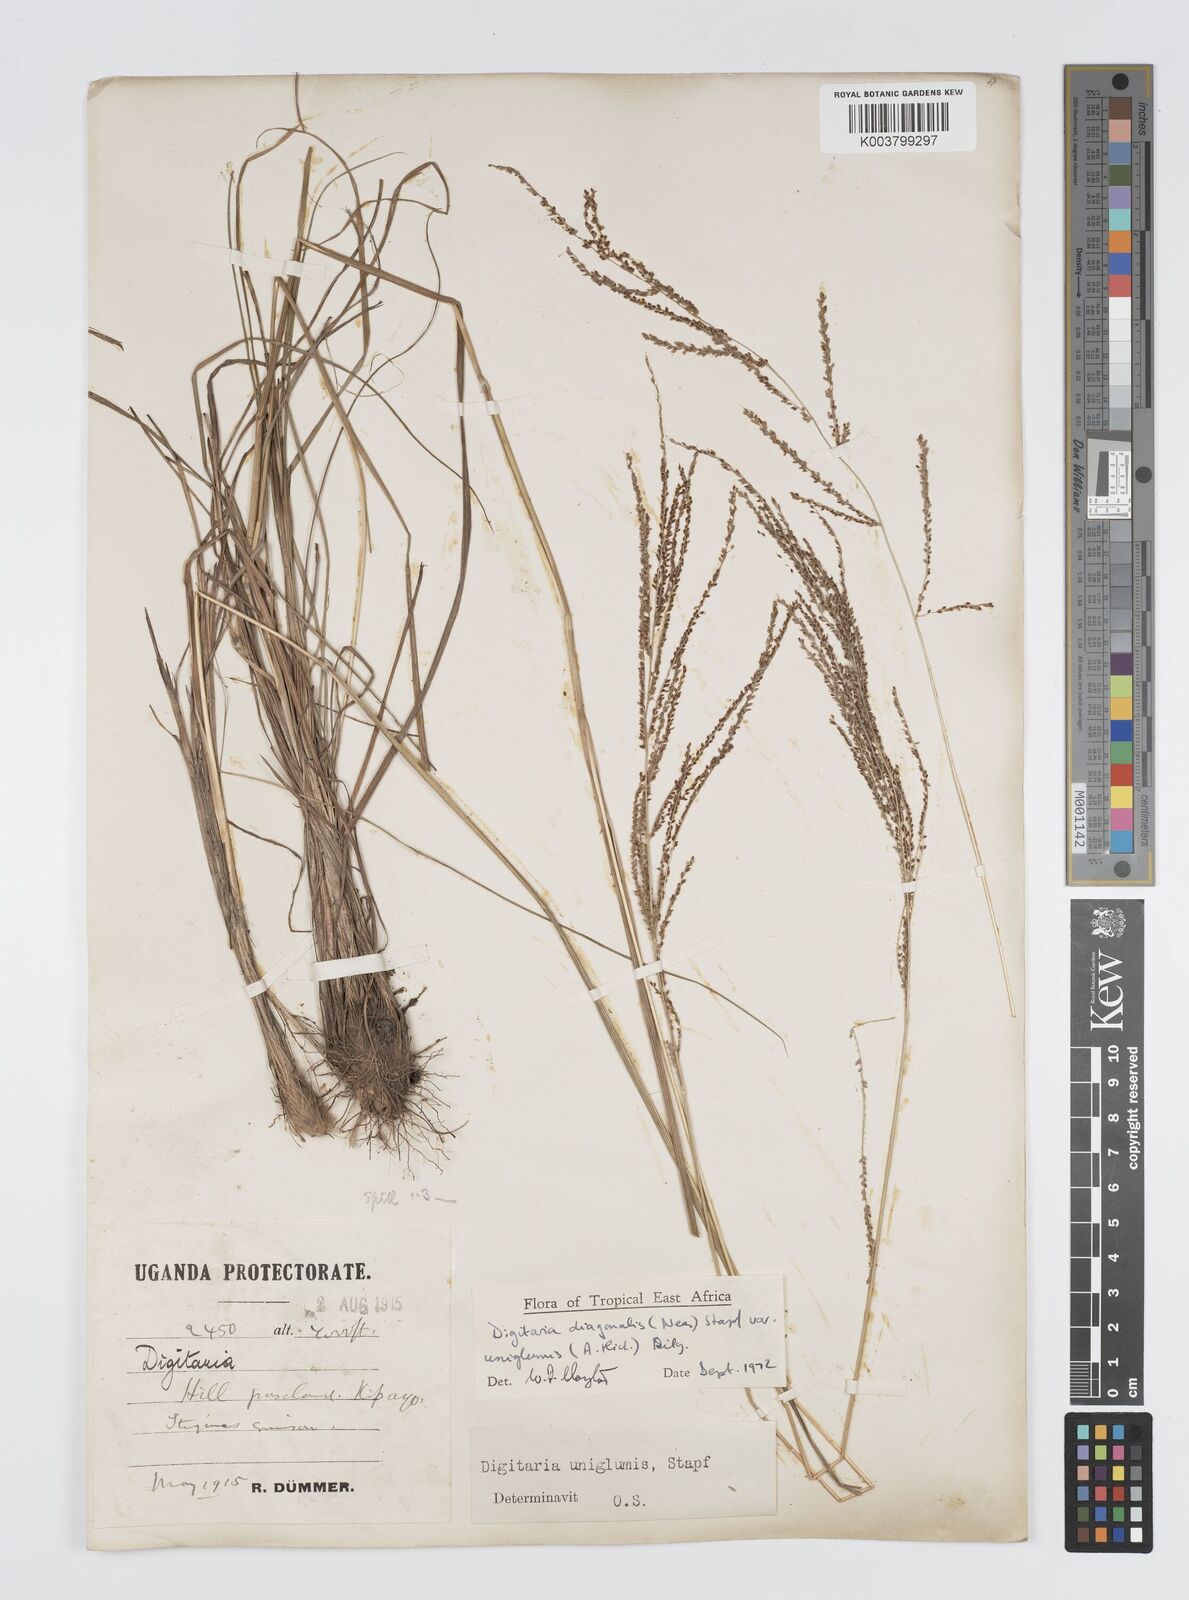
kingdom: Plantae
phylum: Tracheophyta
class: Liliopsida
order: Poales
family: Poaceae
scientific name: Poaceae
